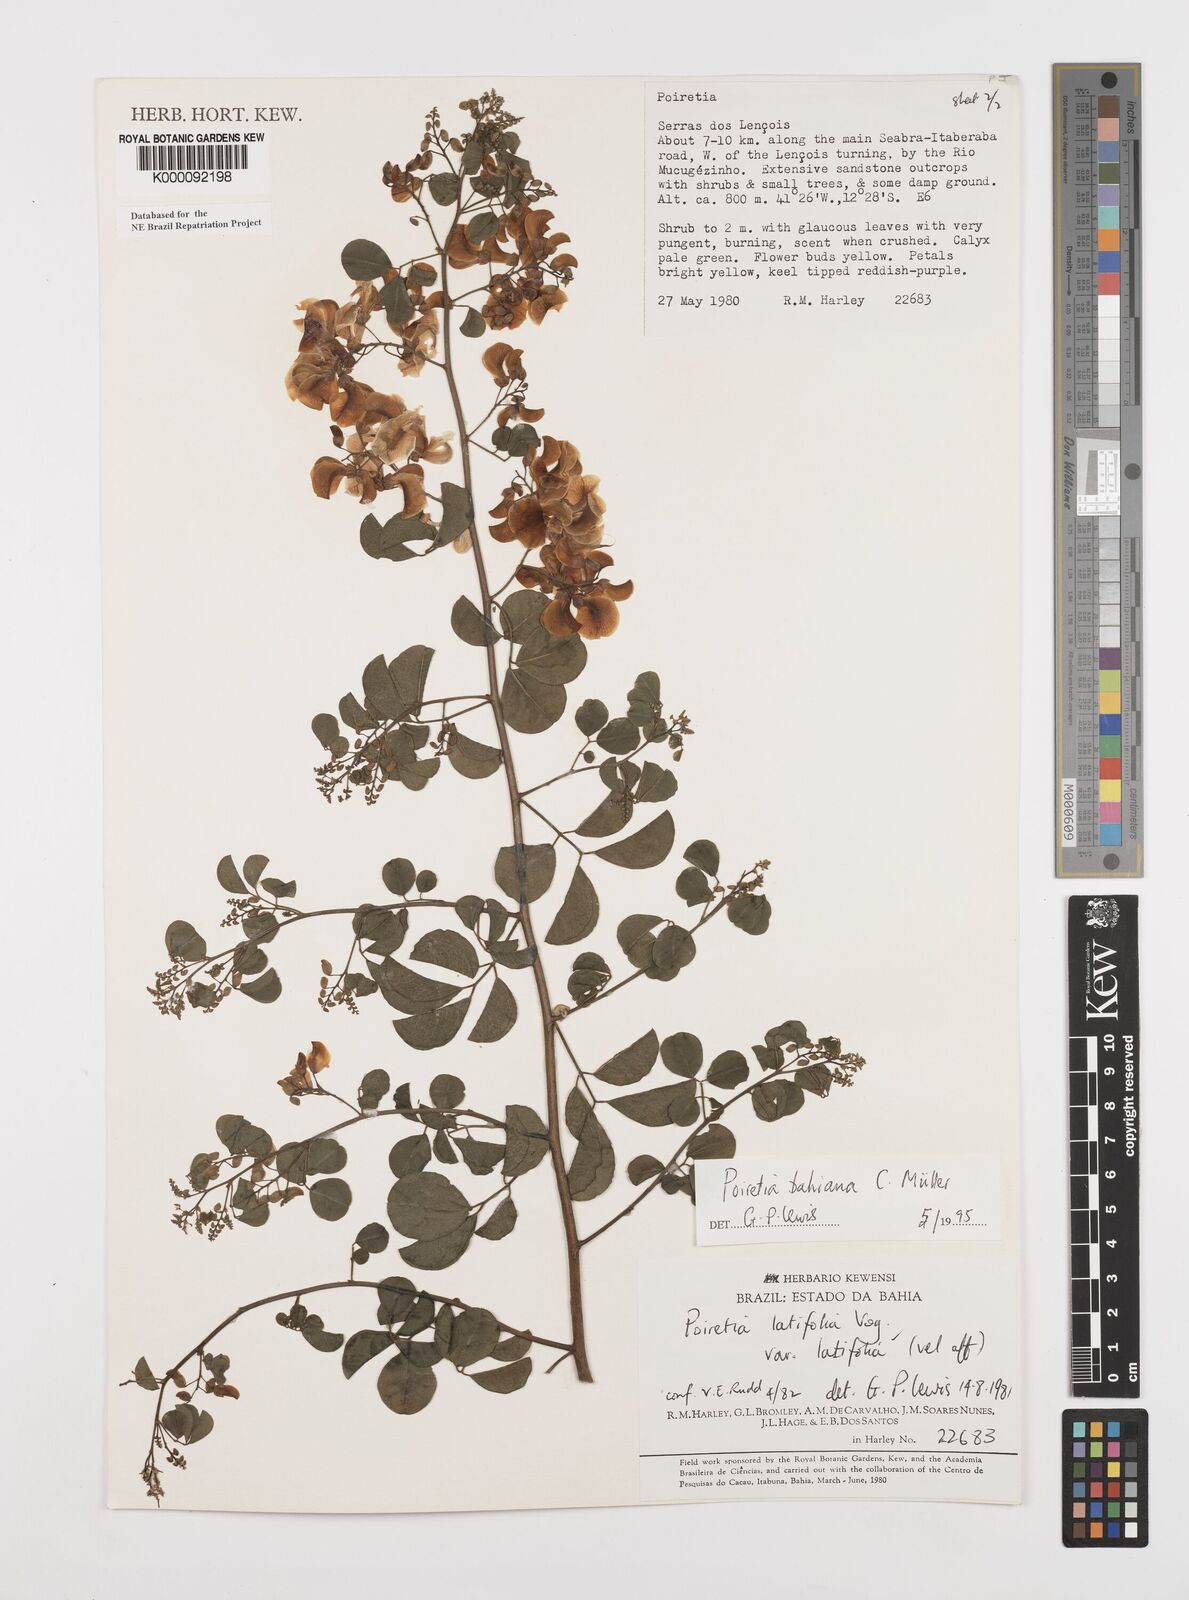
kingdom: Plantae
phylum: Tracheophyta
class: Magnoliopsida
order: Fabales
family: Fabaceae
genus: Poiretia
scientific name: Poiretia
